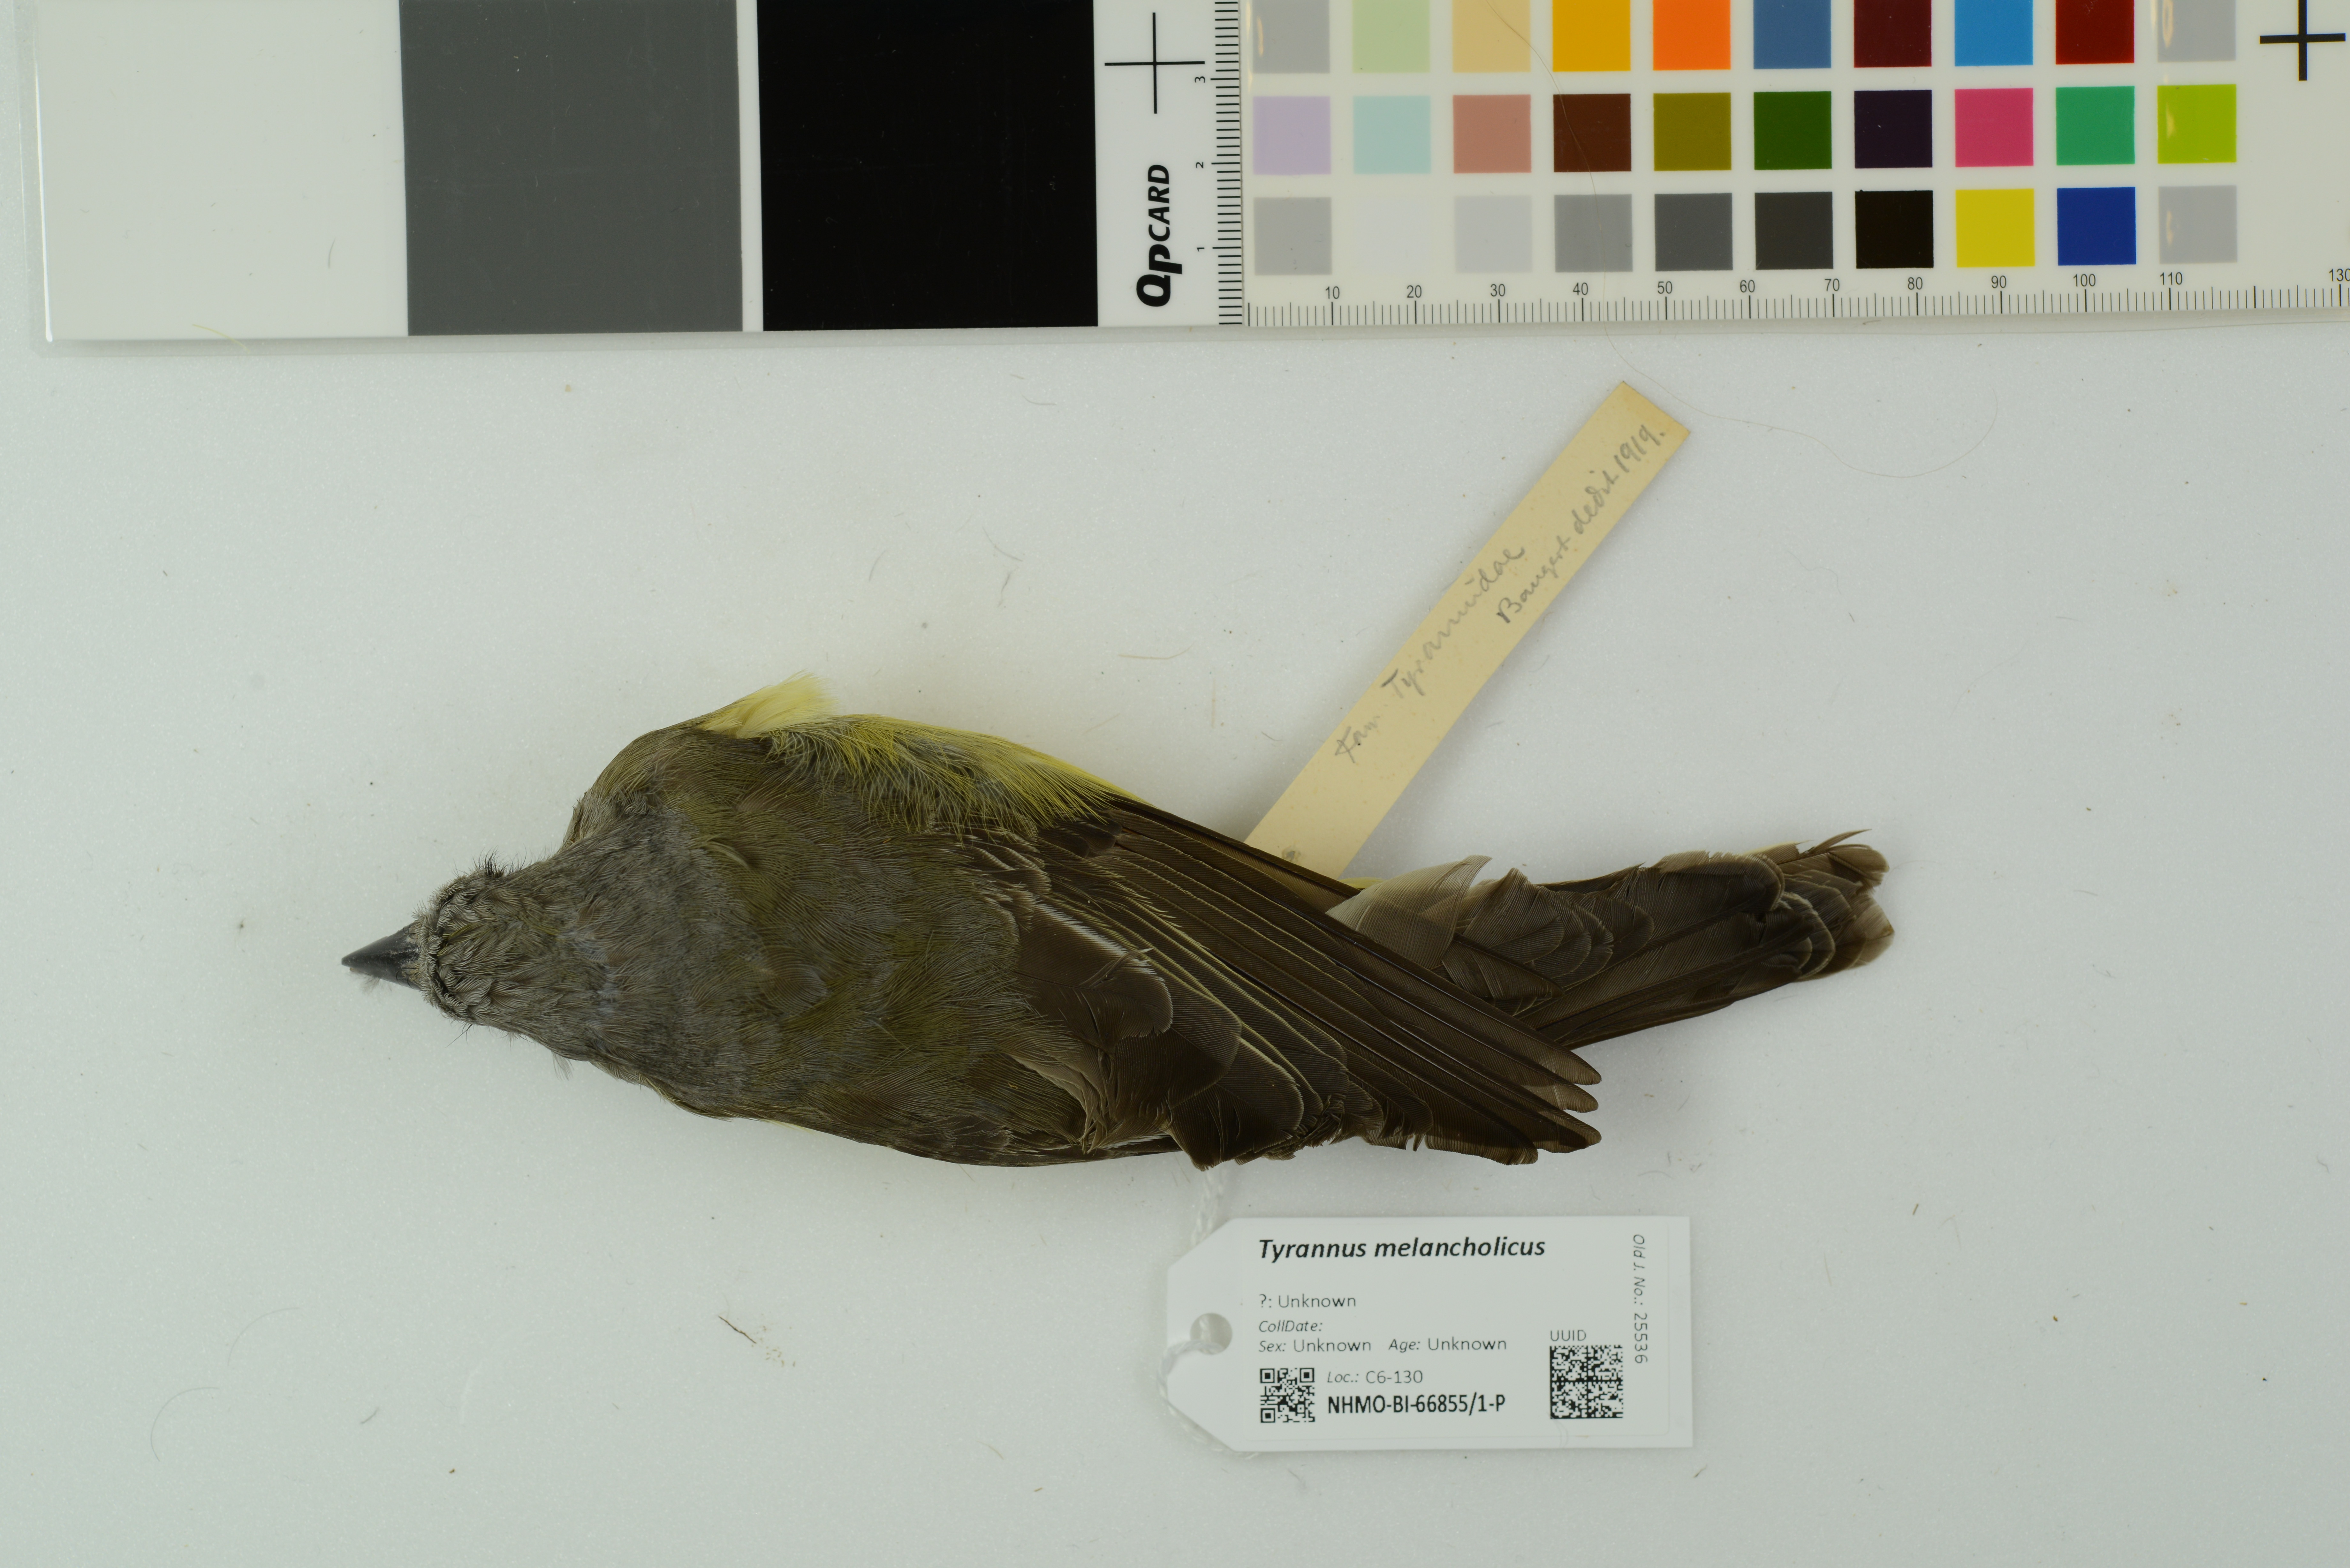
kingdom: Animalia
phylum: Chordata
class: Aves
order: Passeriformes
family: Tyrannidae
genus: Tyrannus
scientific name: Tyrannus melancholicus
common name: Tropical kingbird
